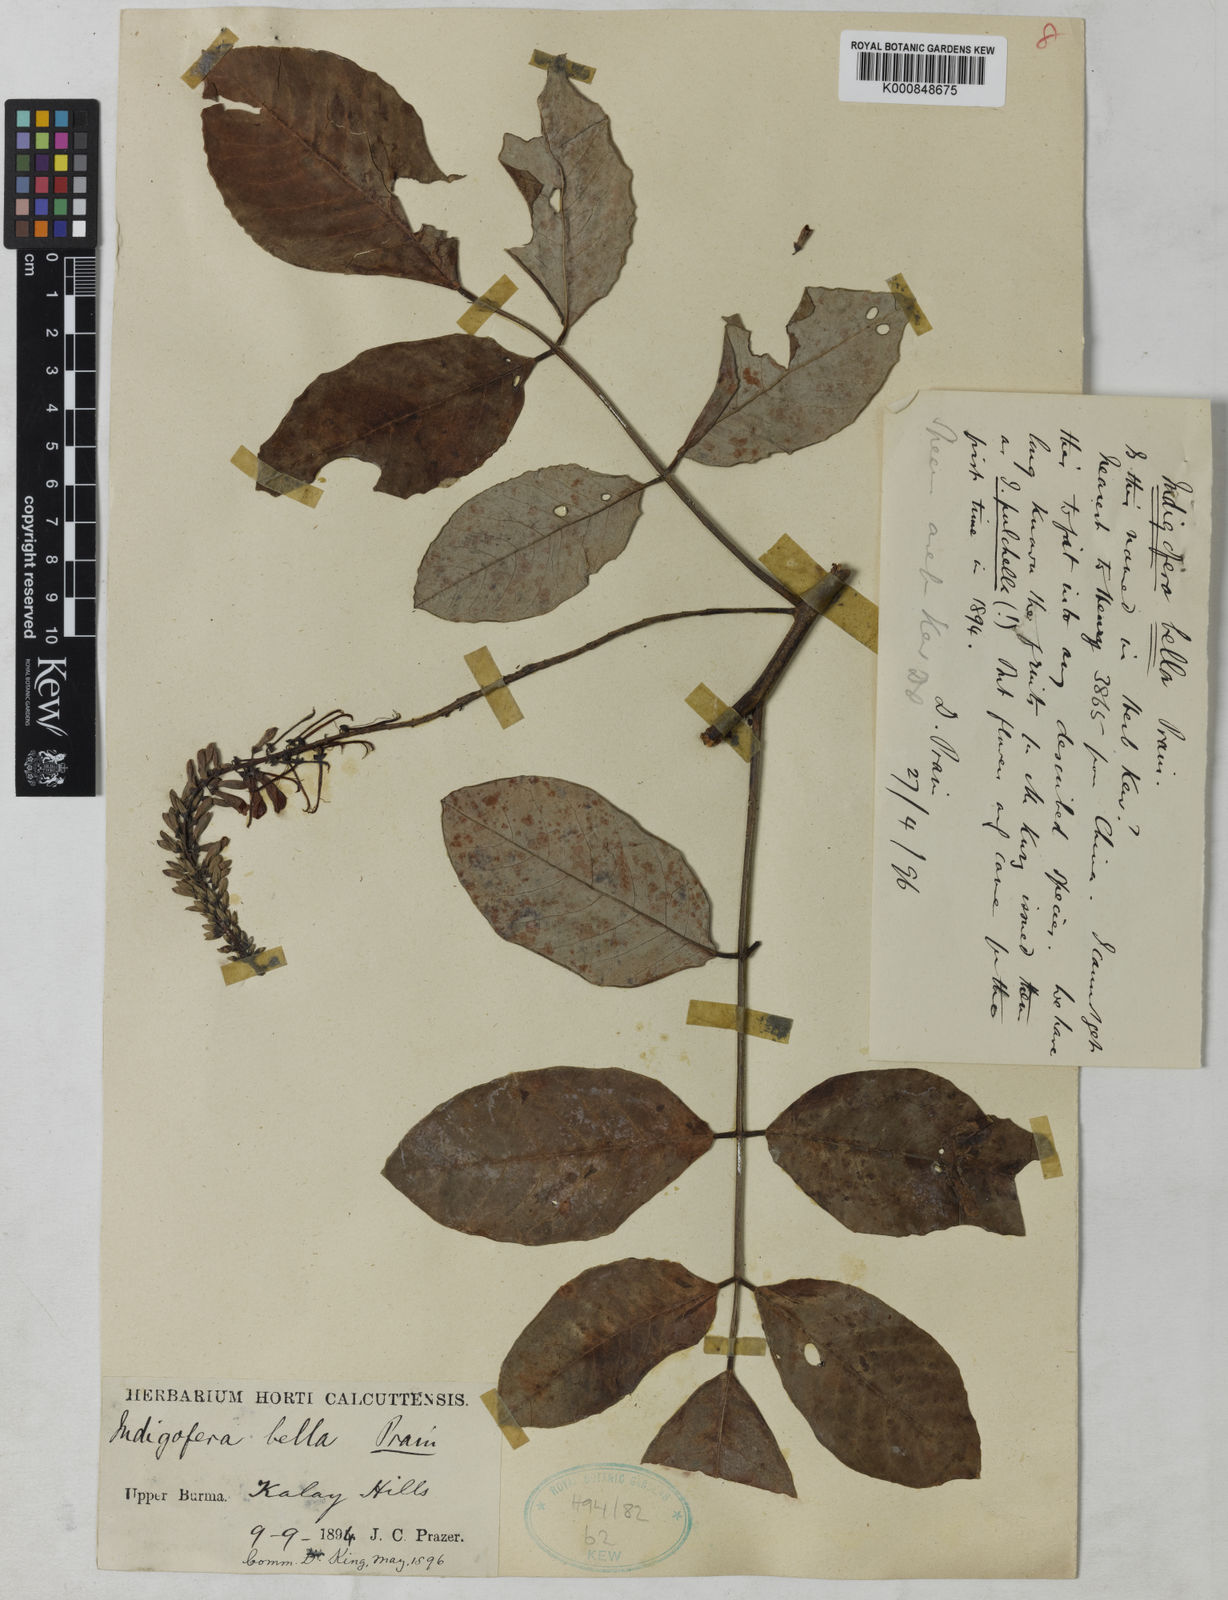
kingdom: Plantae
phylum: Tracheophyta
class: Magnoliopsida
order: Fabales
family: Fabaceae
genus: Indigofera
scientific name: Indigofera bella
